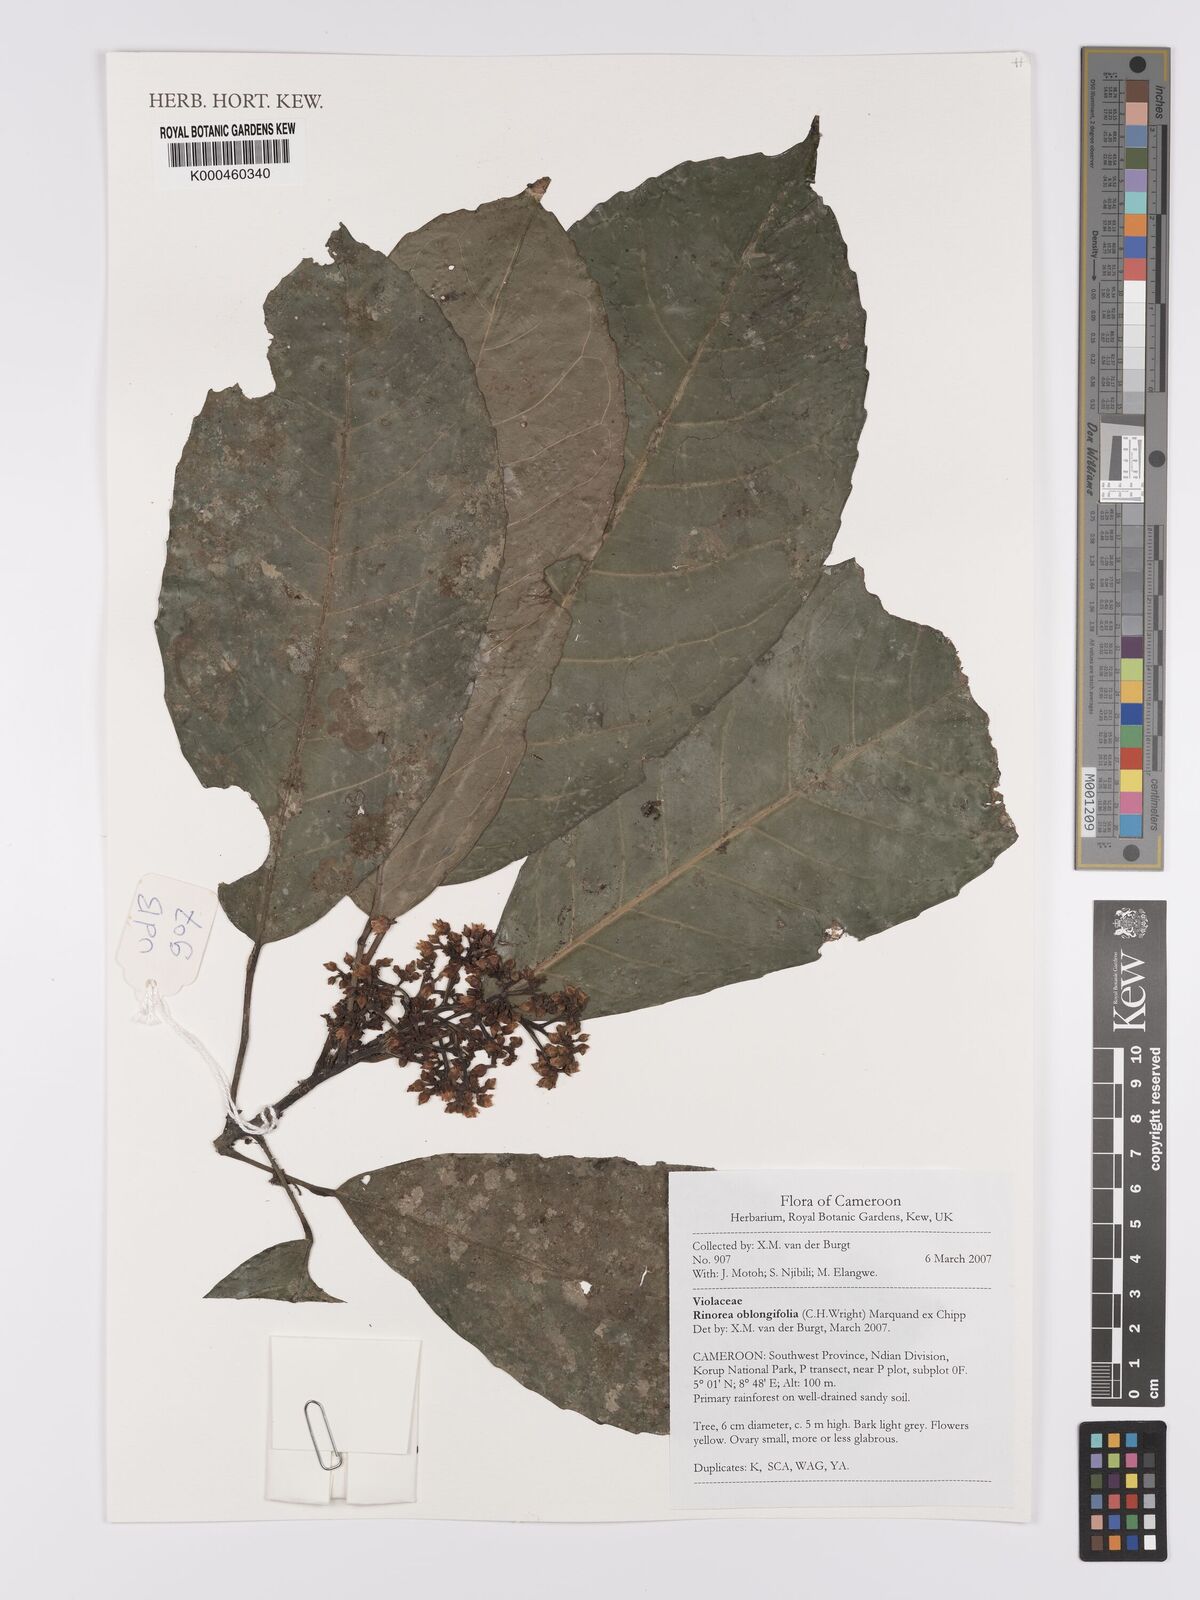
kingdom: Plantae
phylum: Tracheophyta
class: Magnoliopsida
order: Apiales
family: Pittosporaceae
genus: Marianthus
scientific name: Marianthus coeruleopunctatus
